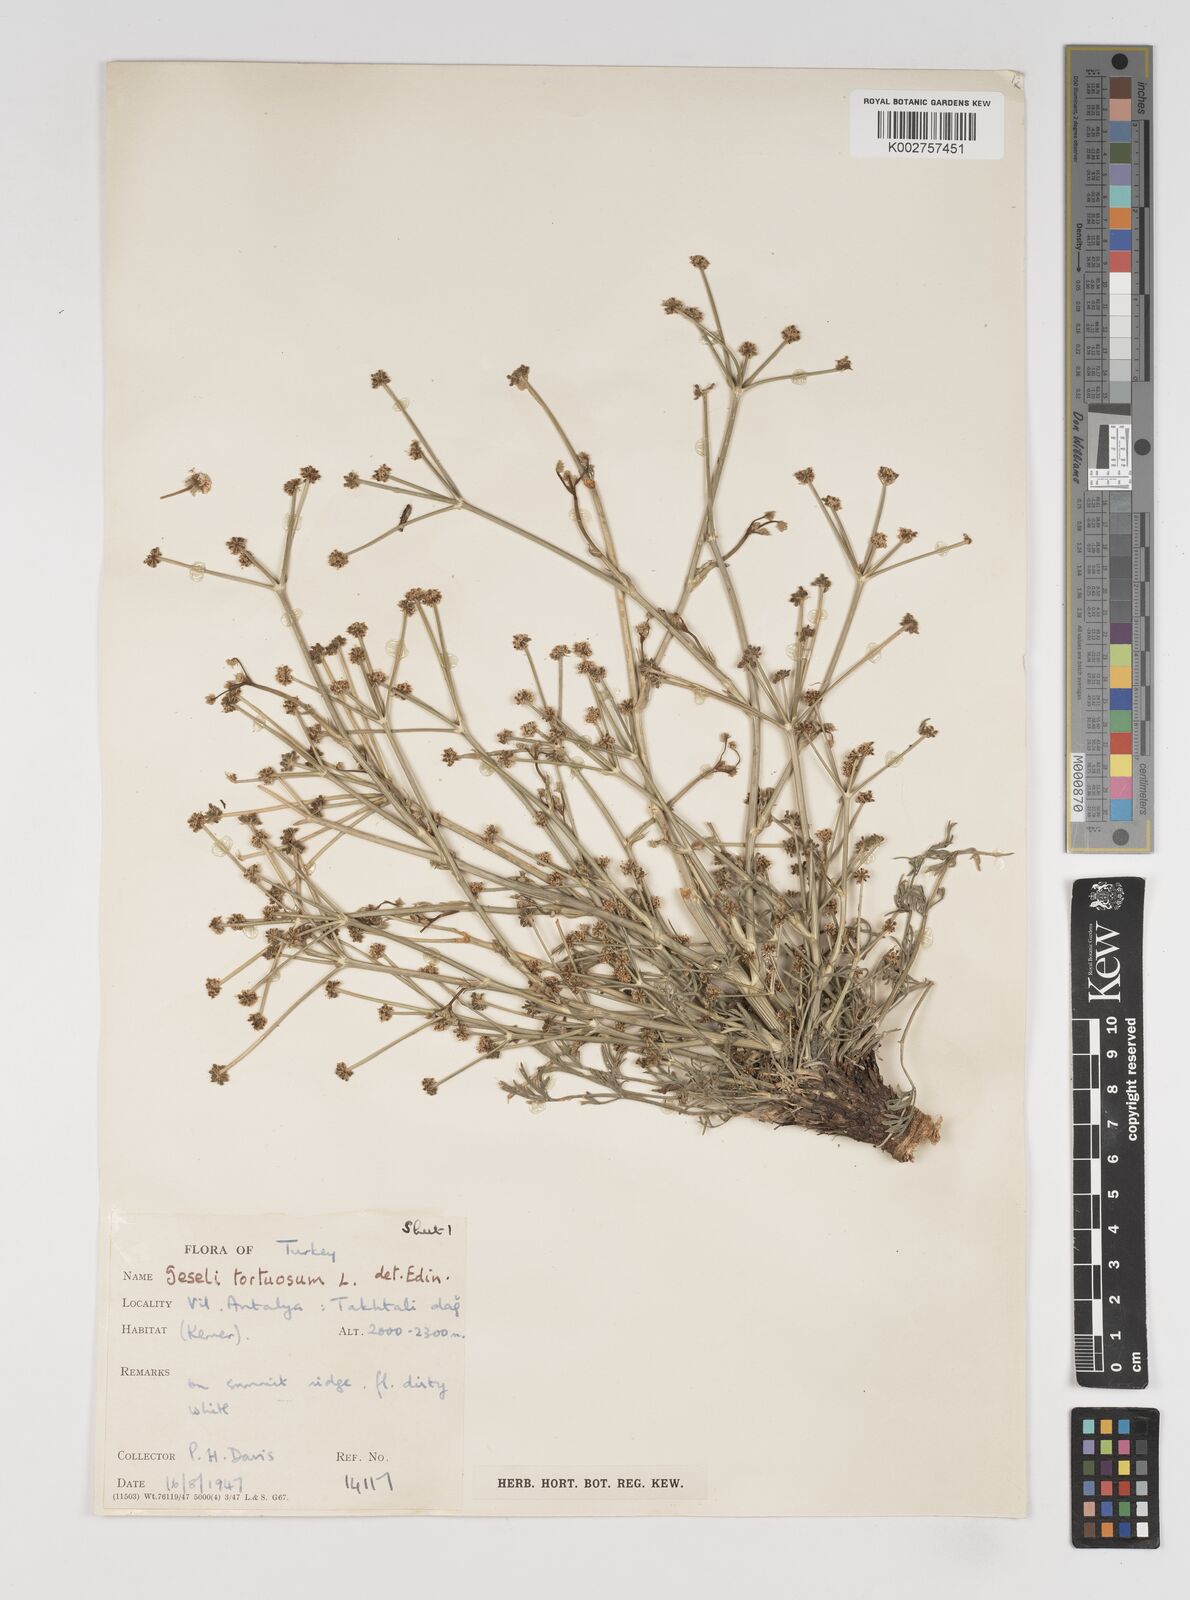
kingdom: Plantae
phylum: Tracheophyta
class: Magnoliopsida
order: Apiales
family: Apiaceae
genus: Seseli
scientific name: Seseli hartvigii
